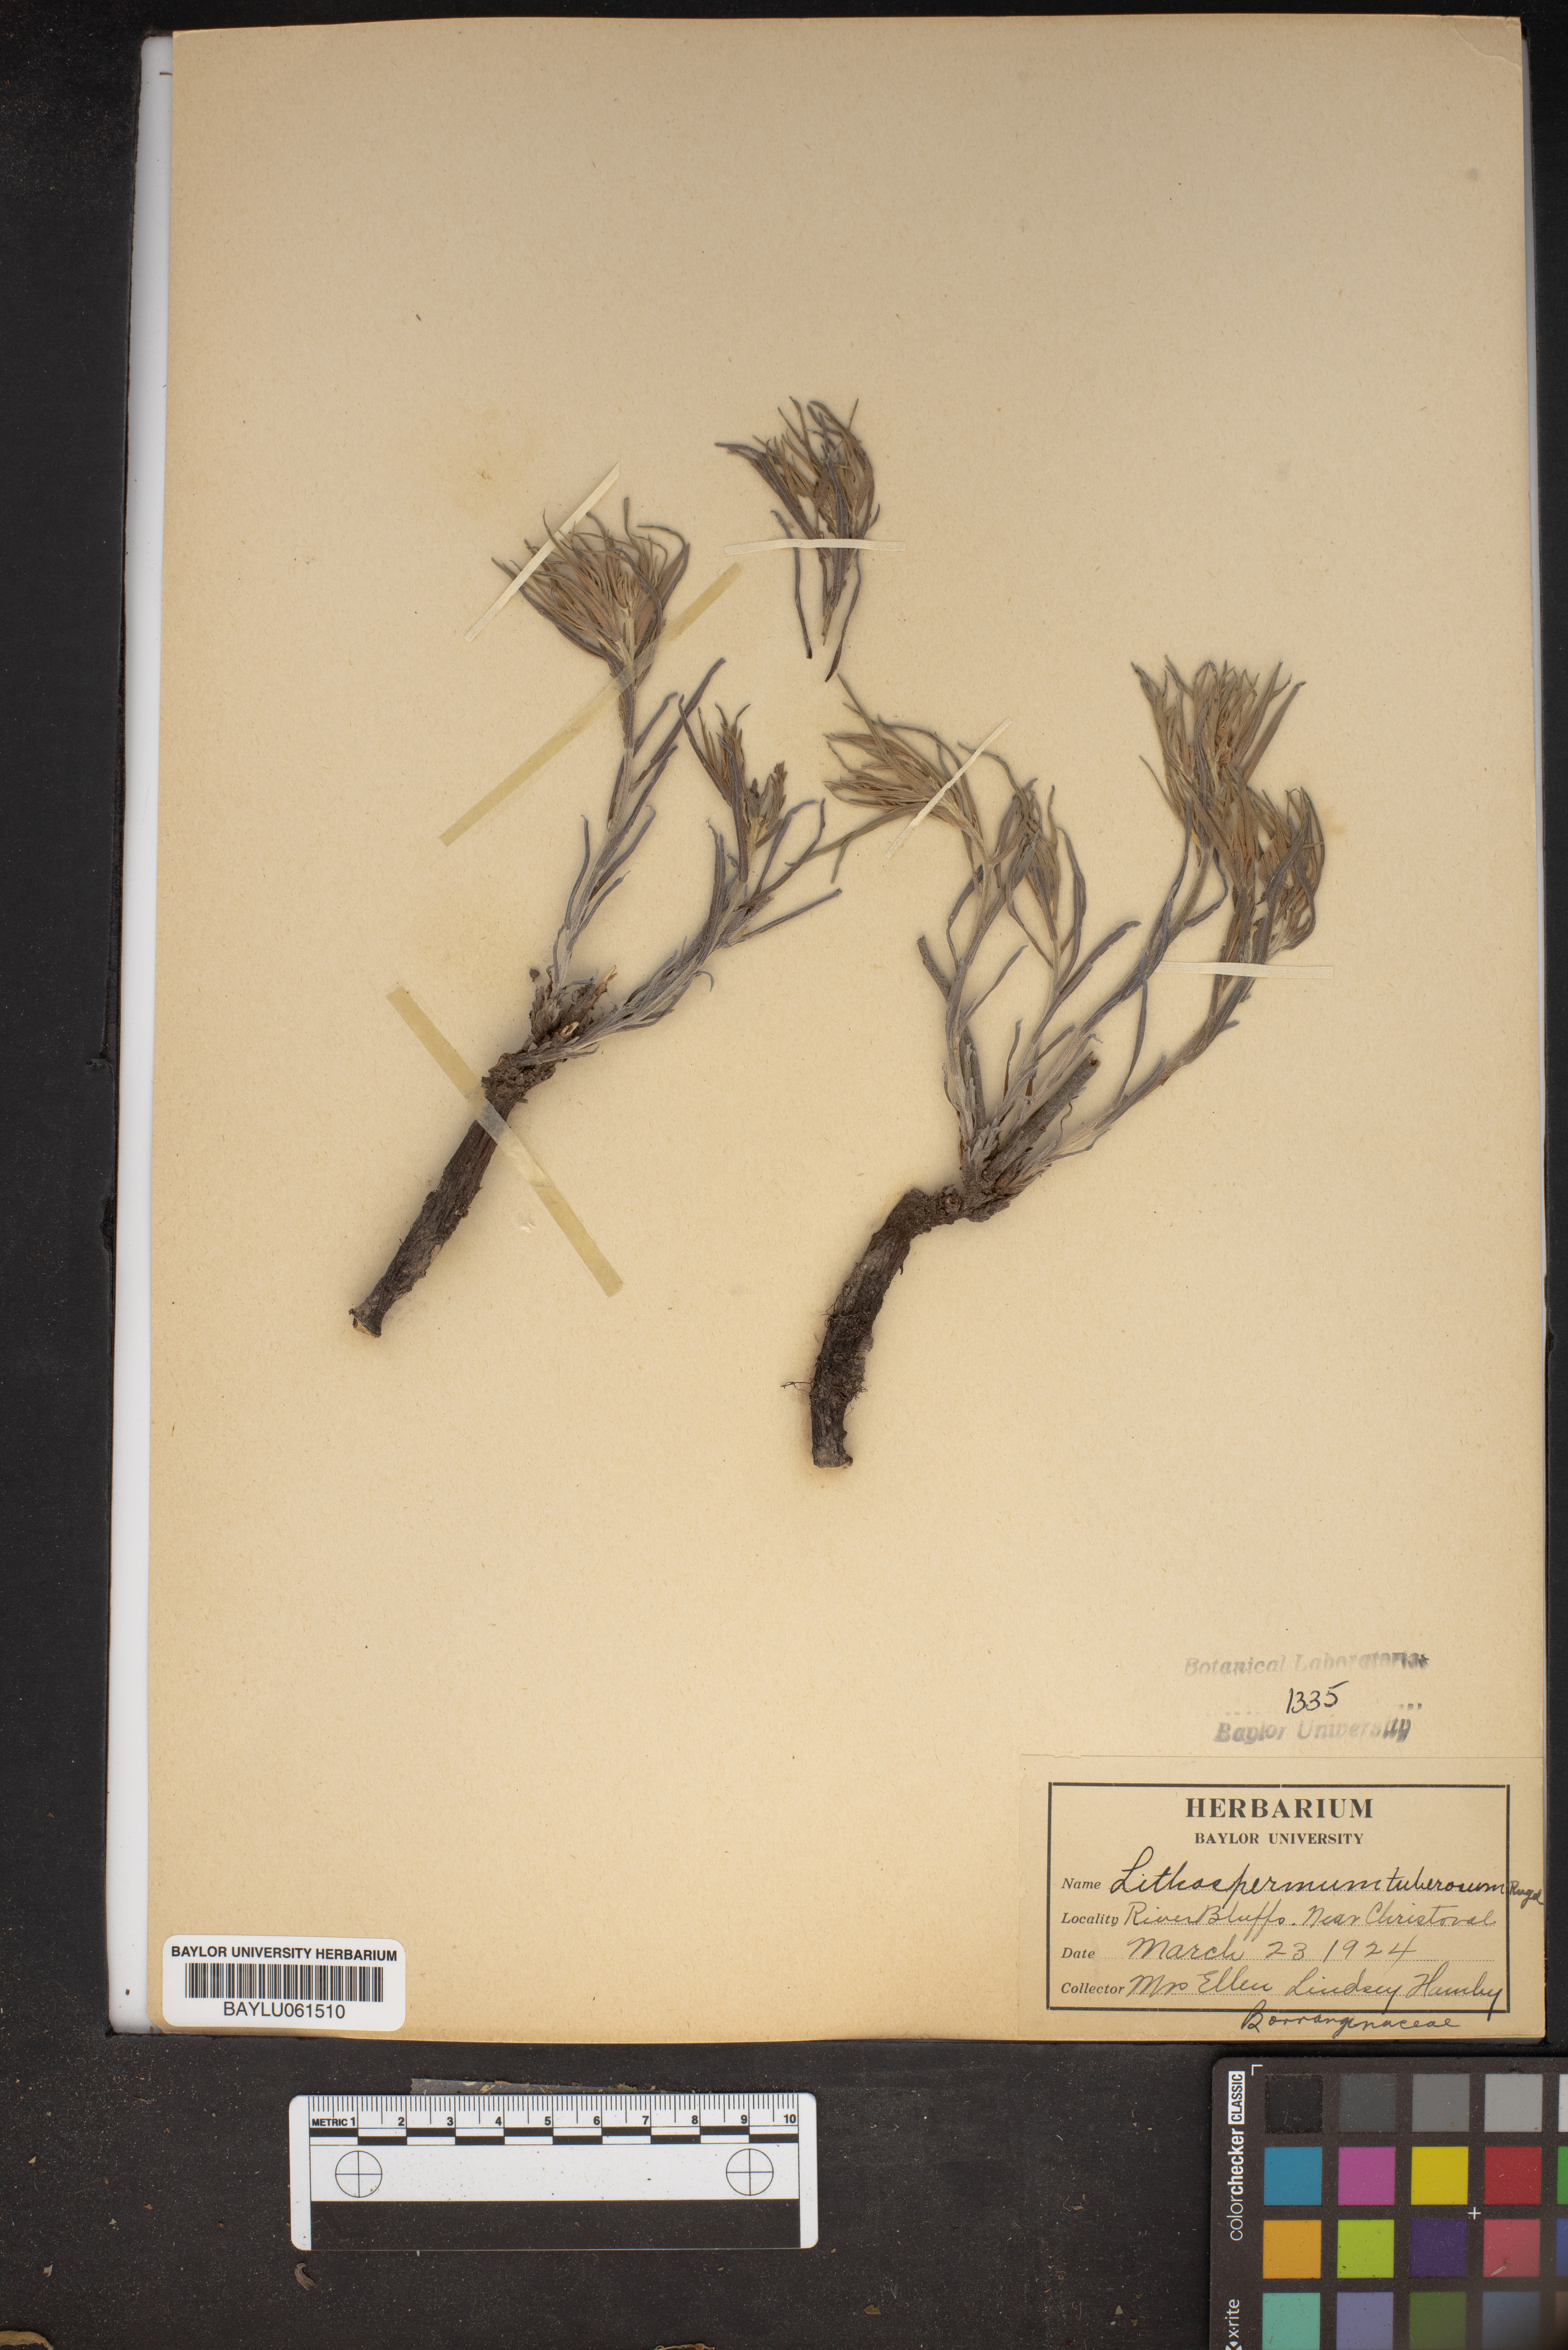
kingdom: Plantae
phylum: Tracheophyta
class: Magnoliopsida
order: Boraginales
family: Boraginaceae
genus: Lithospermum
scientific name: Lithospermum tuberosum
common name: Southern stoneseed
